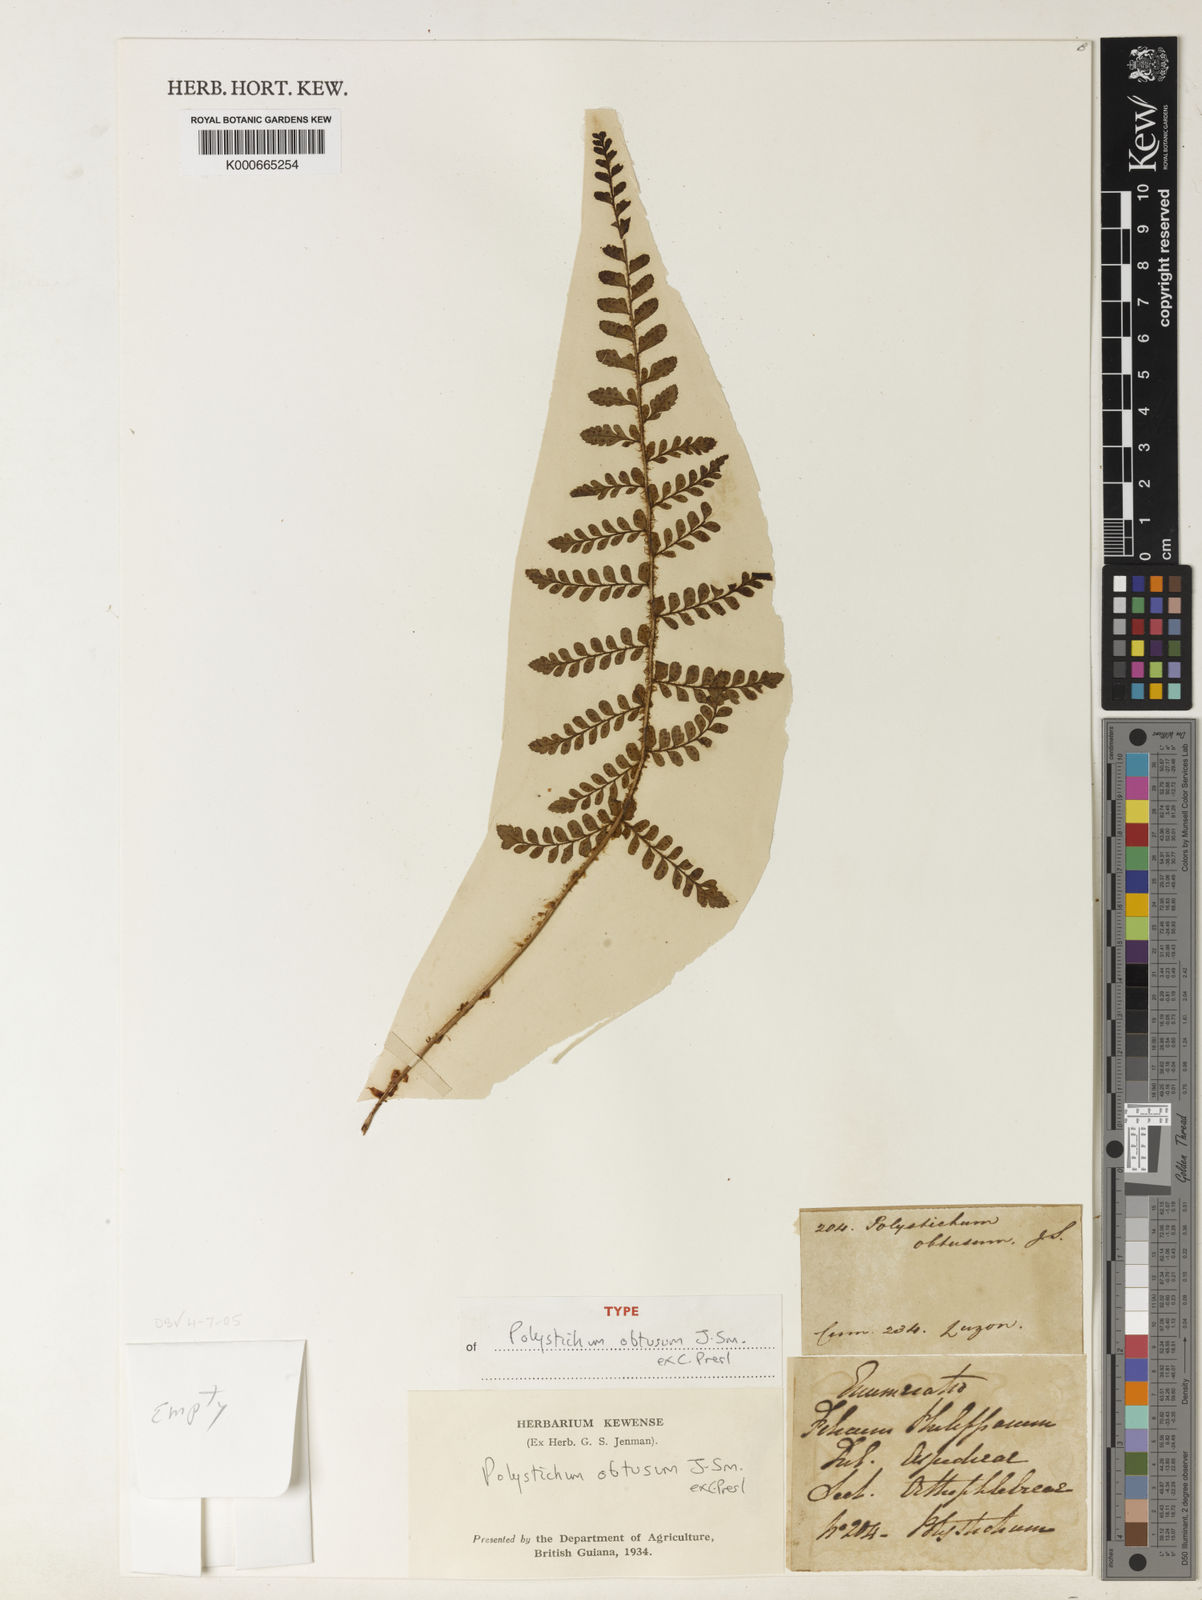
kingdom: Plantae
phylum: Tracheophyta
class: Polypodiopsida
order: Polypodiales
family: Dryopteridaceae
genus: Polystichum
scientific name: Polystichum obtusum
